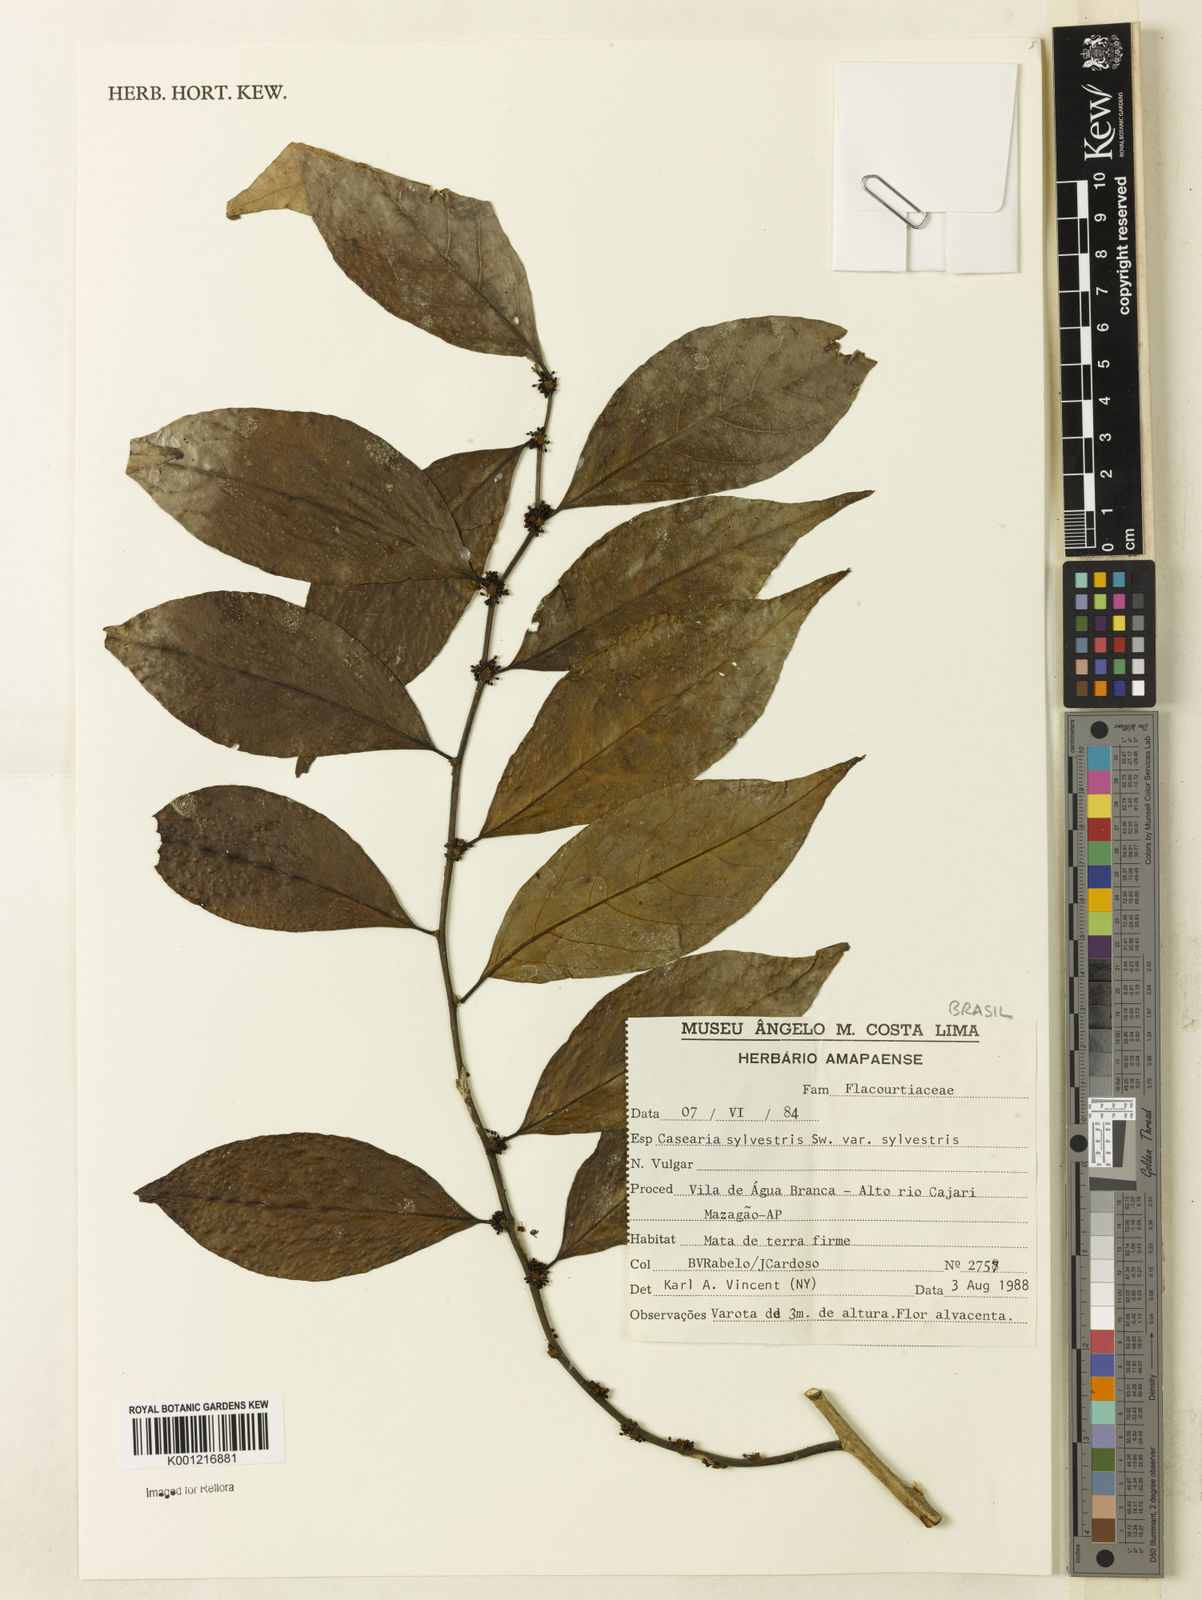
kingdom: Plantae
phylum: Tracheophyta
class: Magnoliopsida
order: Malpighiales
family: Salicaceae
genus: Casearia
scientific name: Casearia sylvestris
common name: Wild sage
